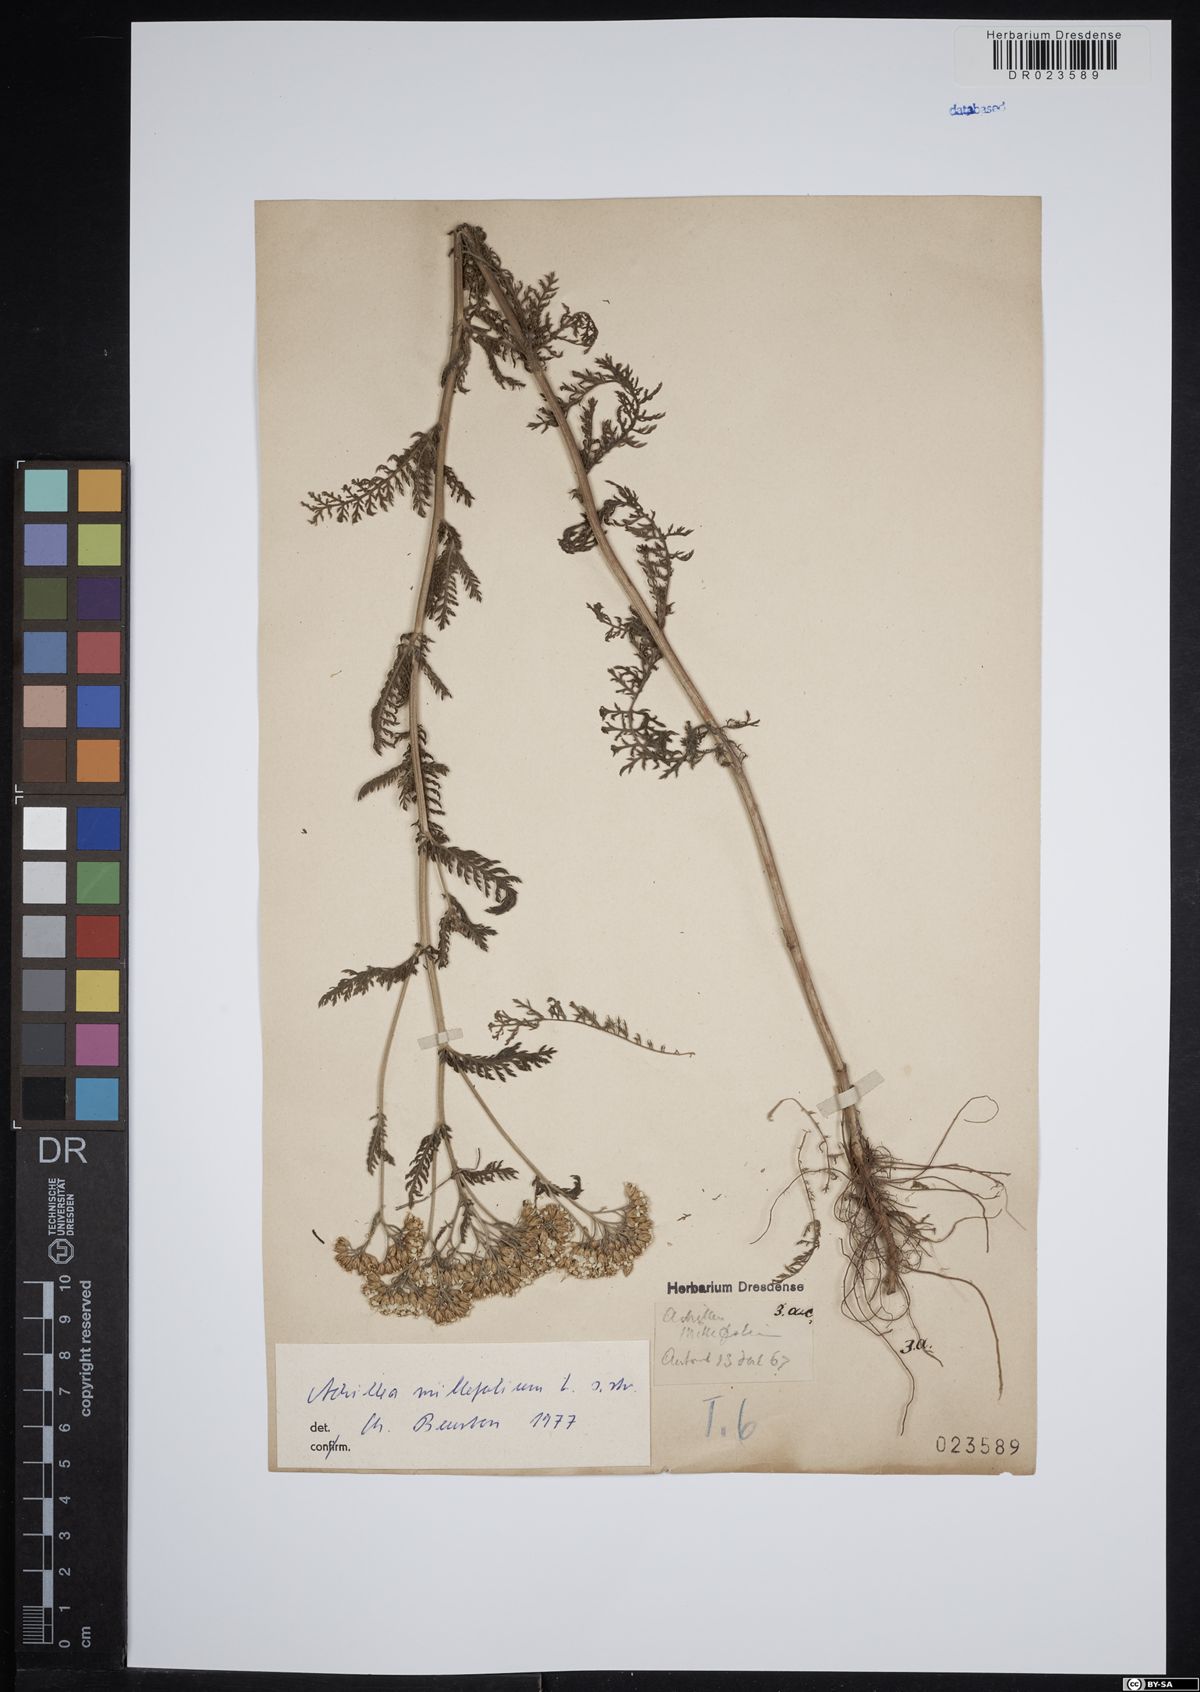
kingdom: Plantae
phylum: Tracheophyta
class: Magnoliopsida
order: Asterales
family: Asteraceae
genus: Achillea
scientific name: Achillea millefolium
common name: Yarrow
